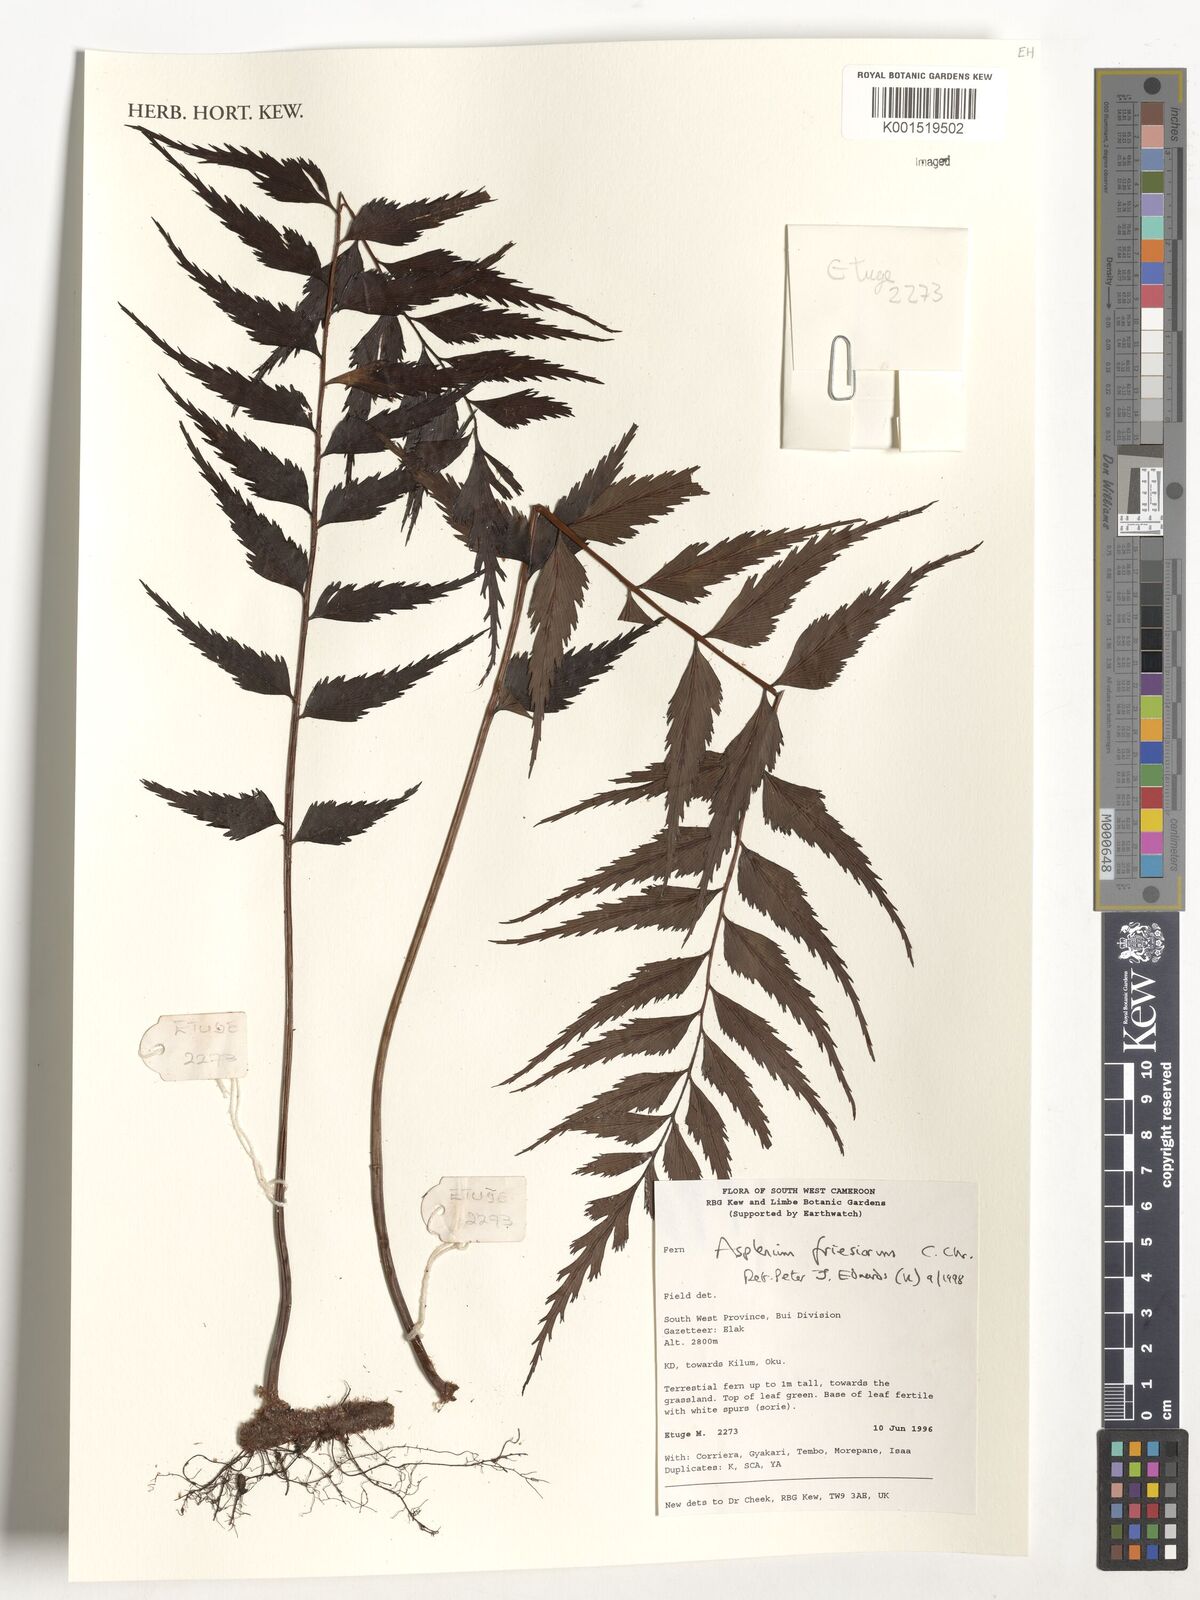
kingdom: Plantae
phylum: Tracheophyta
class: Polypodiopsida
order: Polypodiales
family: Aspleniaceae
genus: Asplenium
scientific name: Asplenium gueinzianum
